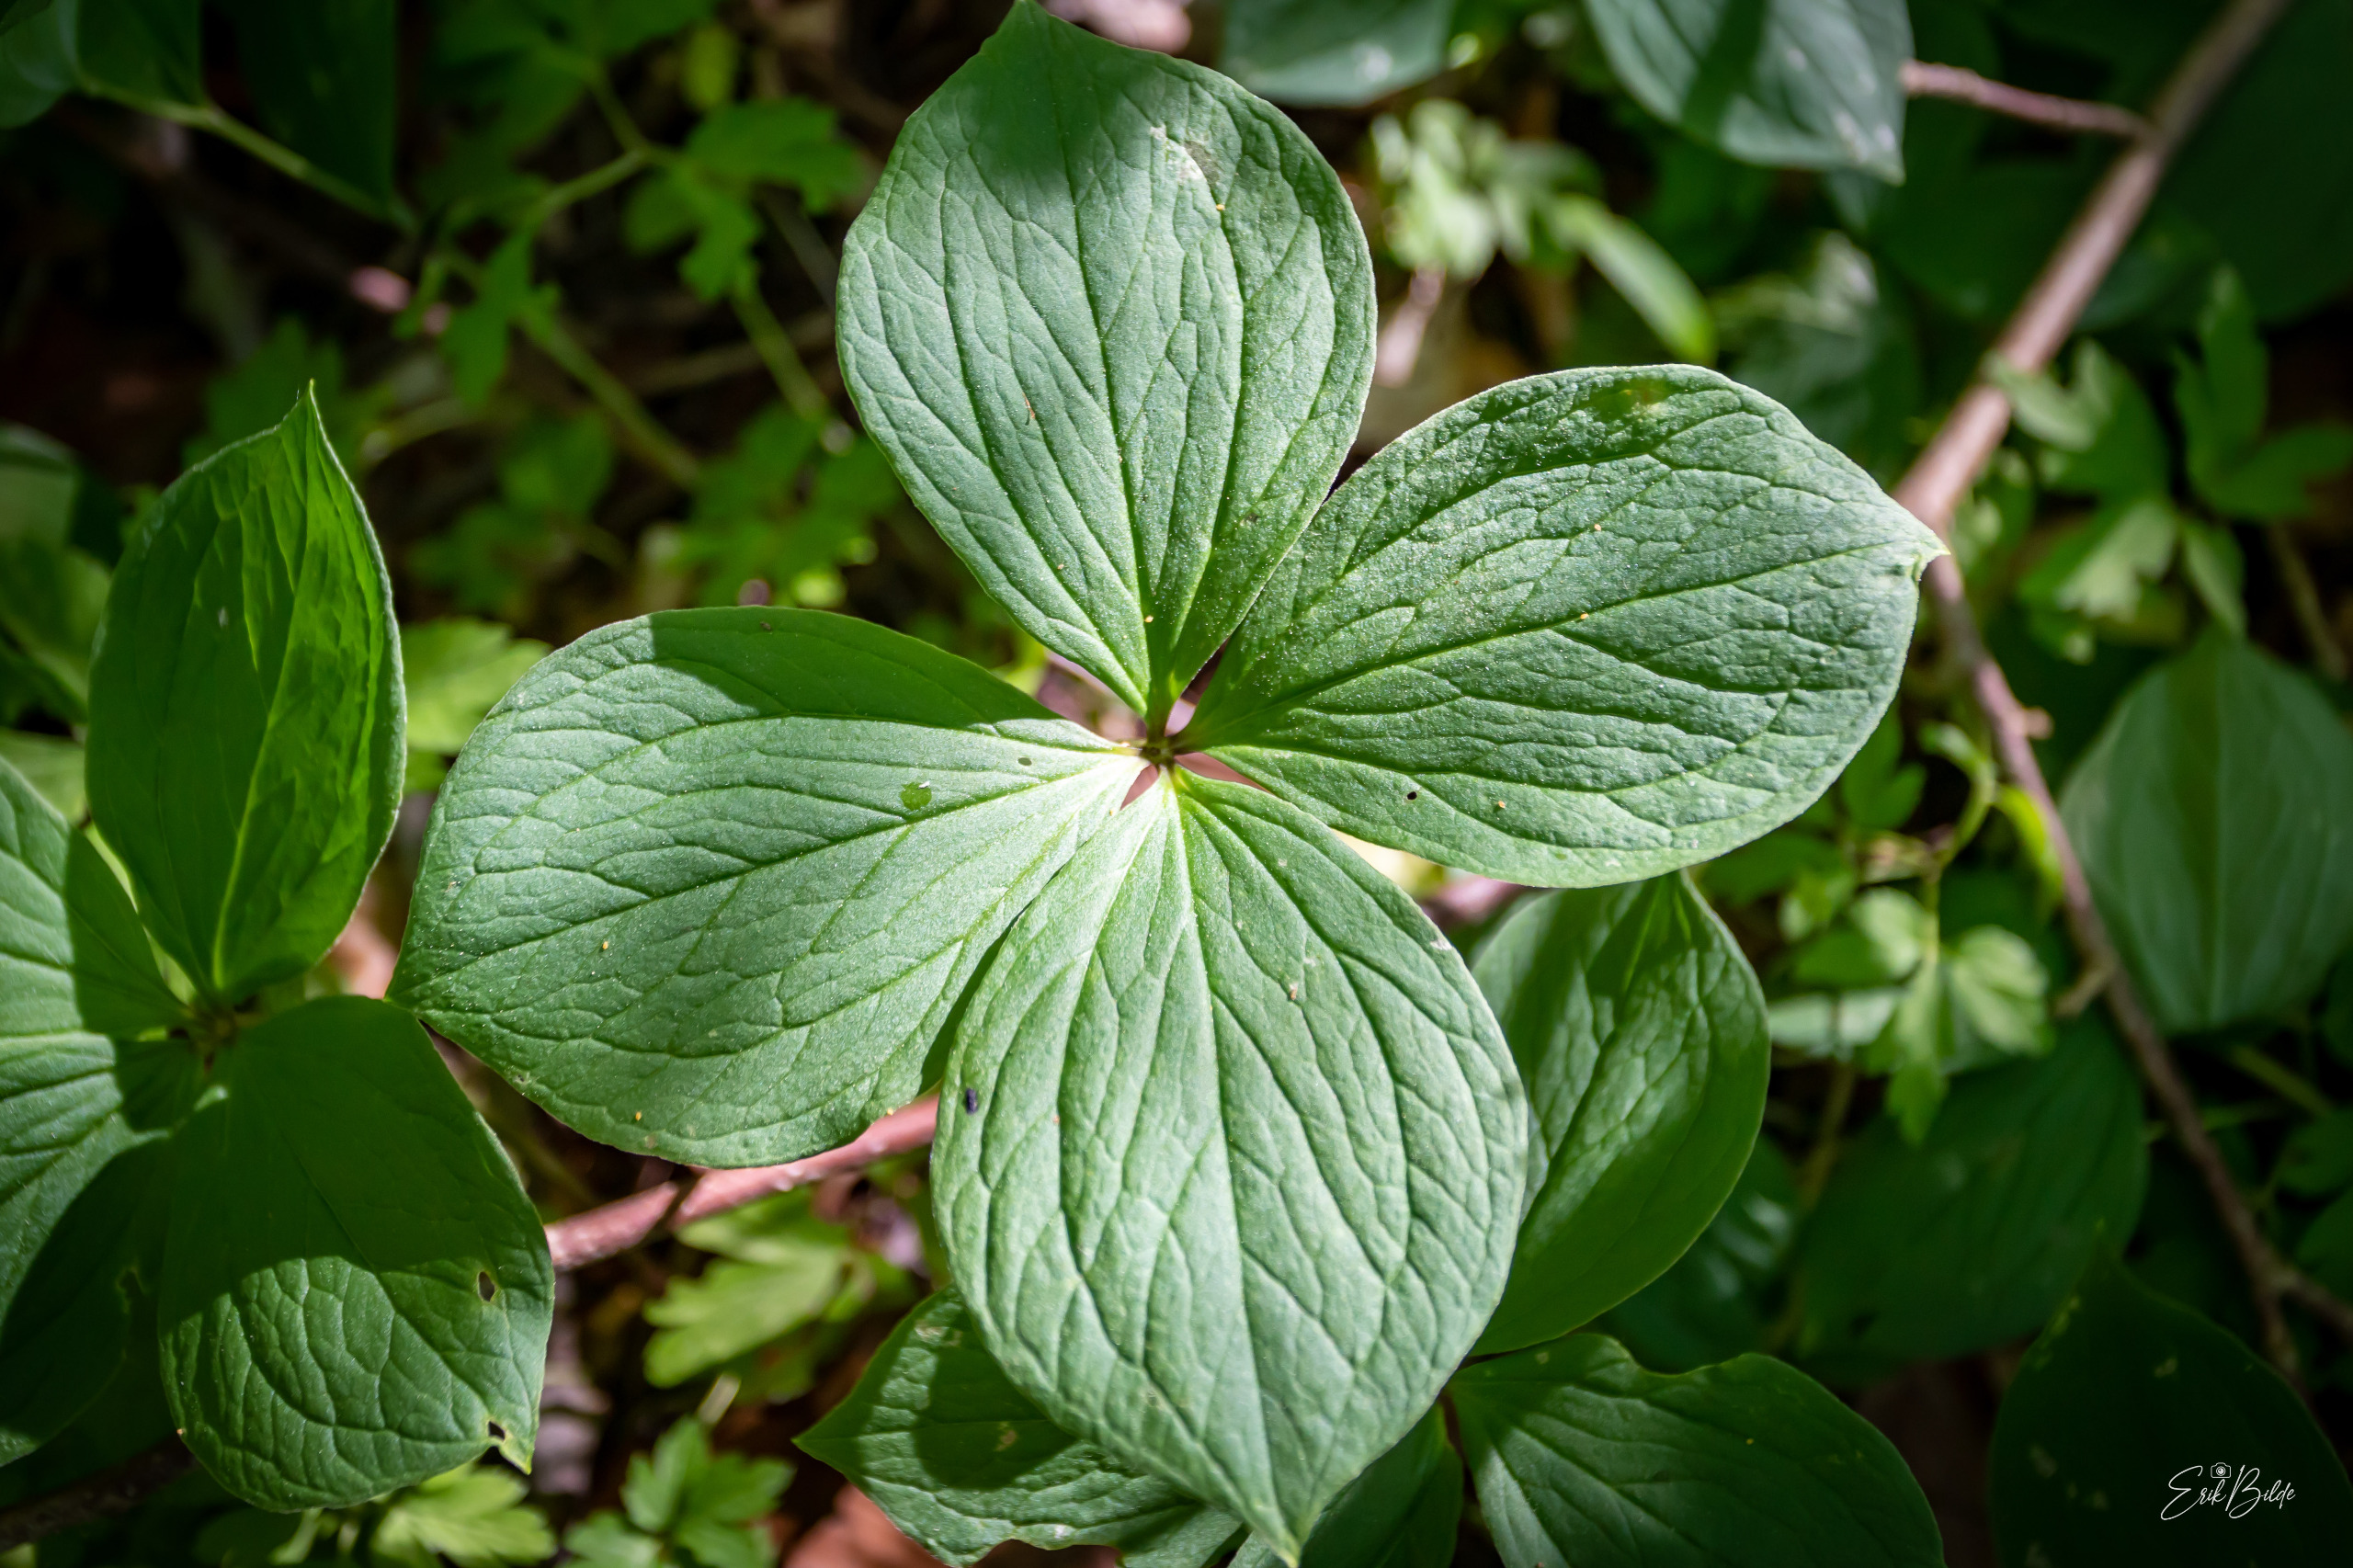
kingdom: Plantae
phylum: Tracheophyta
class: Liliopsida
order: Liliales
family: Melanthiaceae
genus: Paris
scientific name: Paris quadrifolia
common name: Firblad
